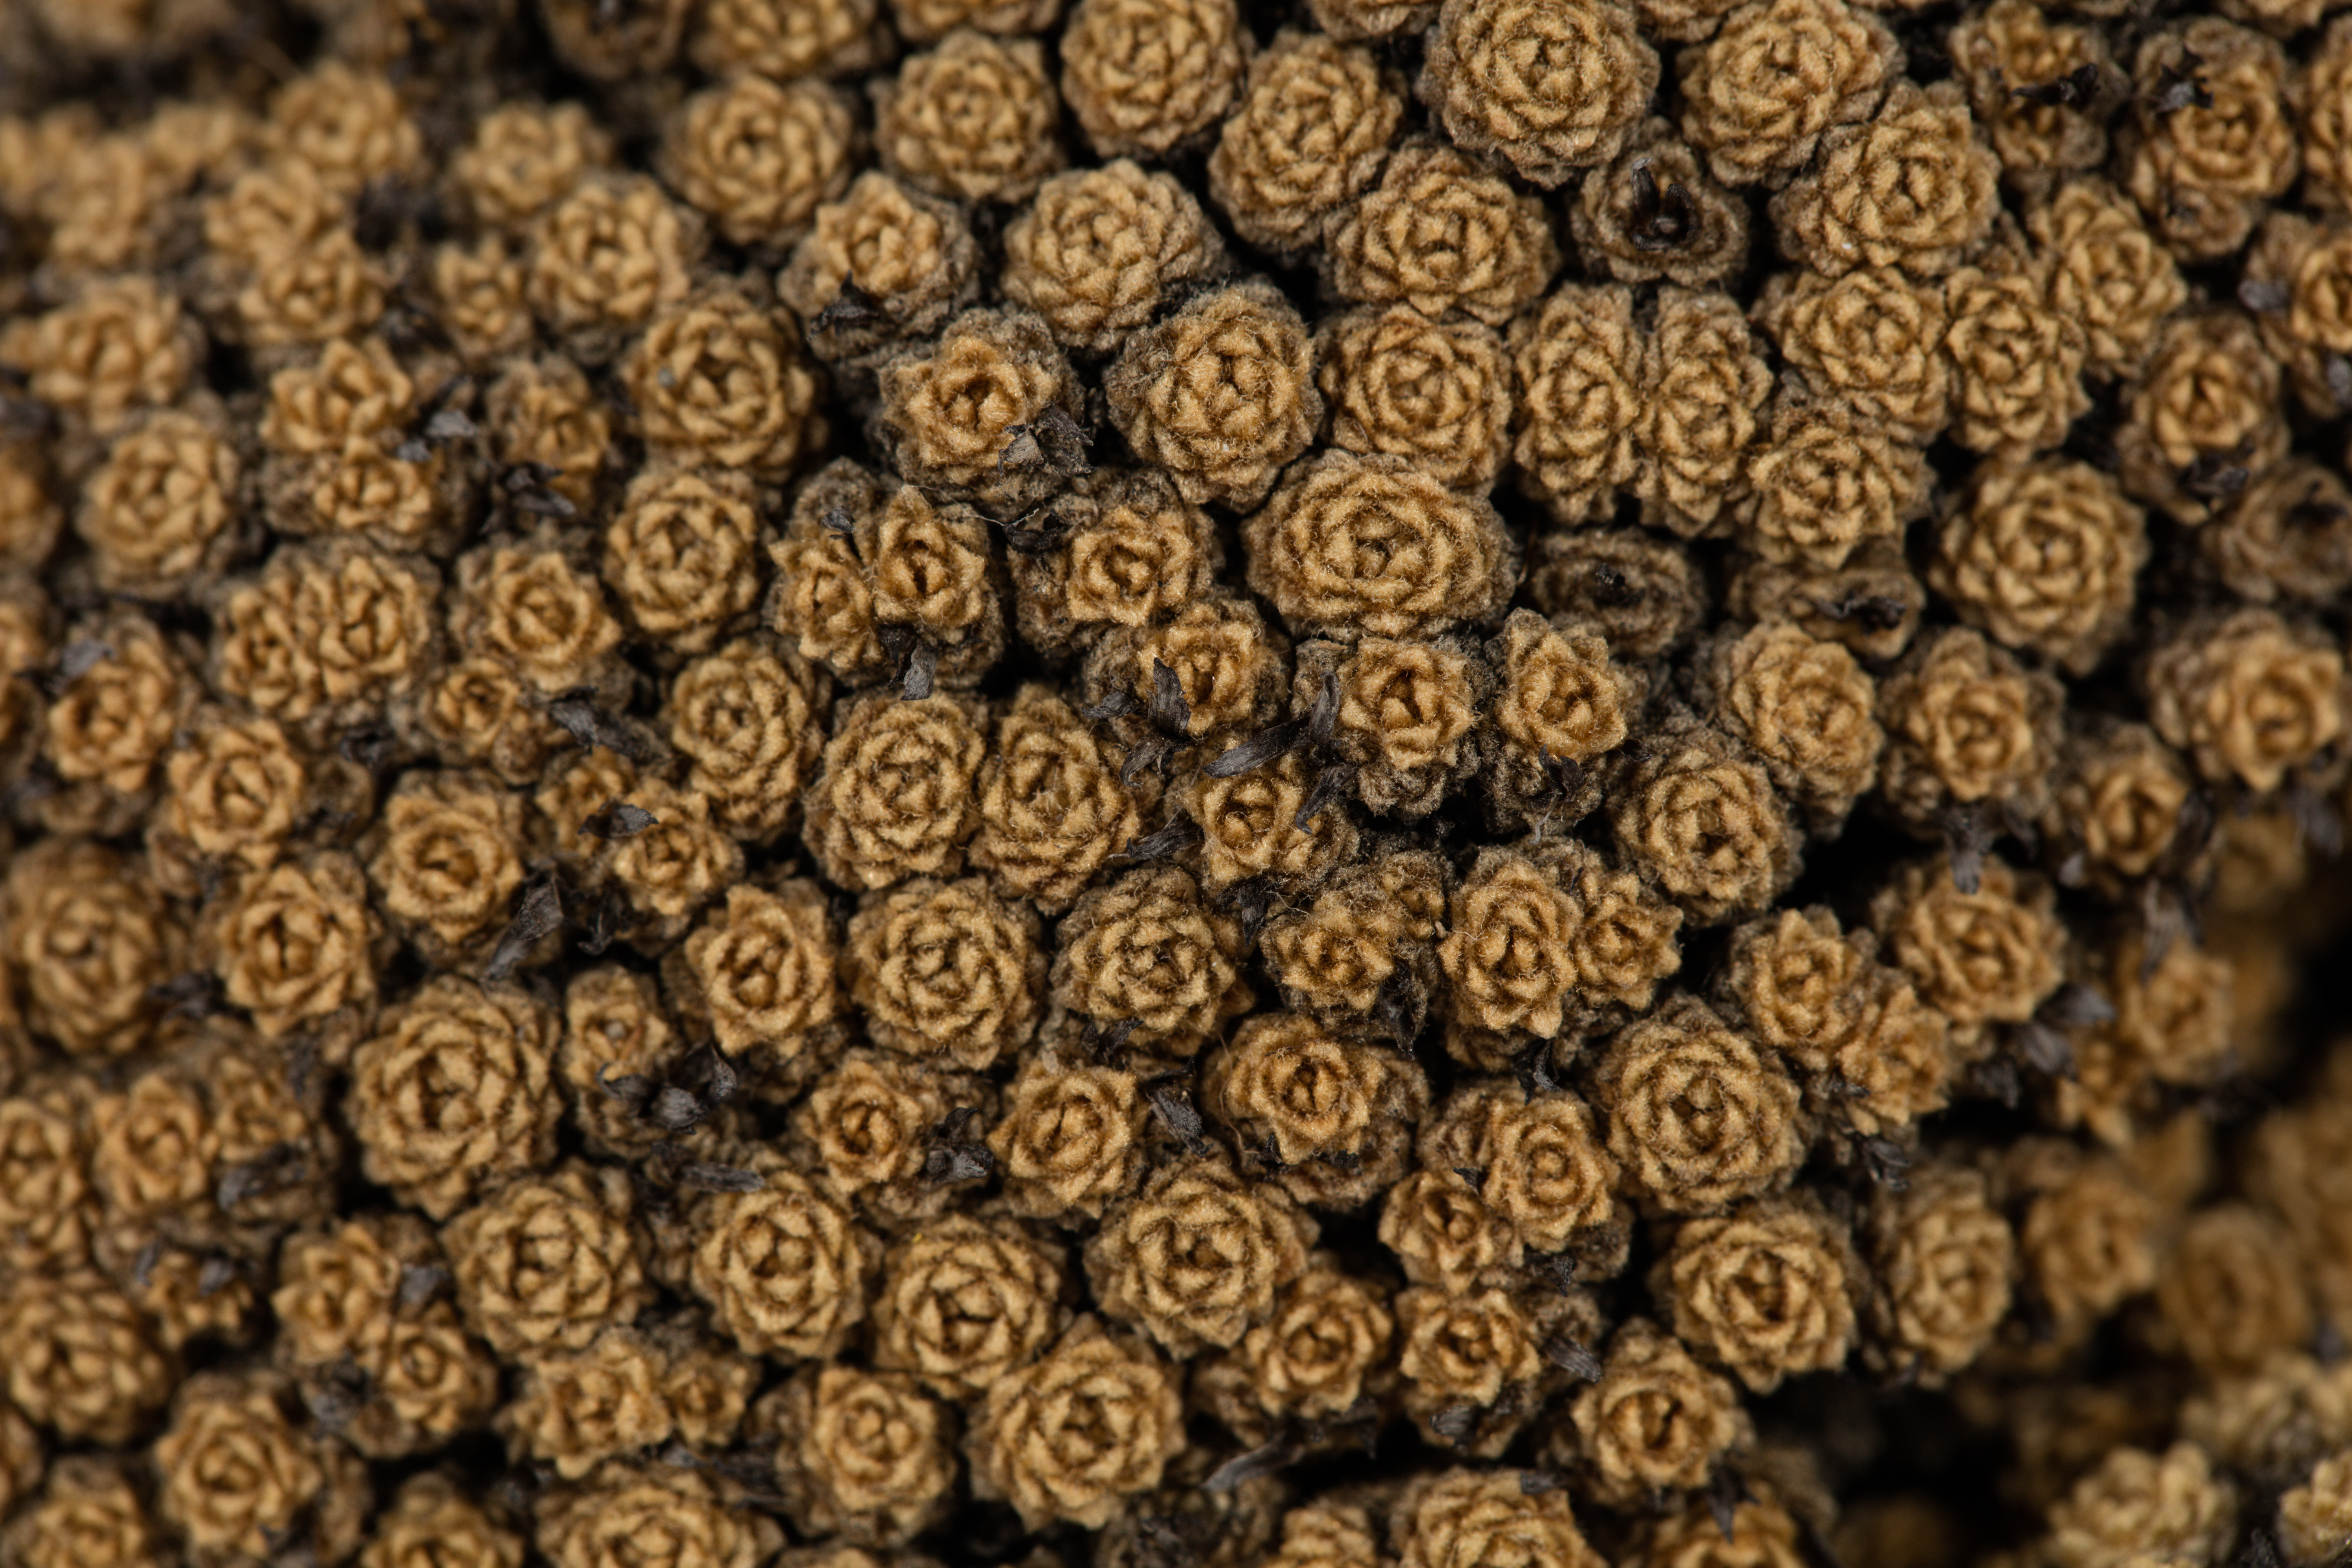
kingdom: Plantae
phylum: Tracheophyta
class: Magnoliopsida
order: Asterales
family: Asteraceae
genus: Raoulia
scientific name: Raoulia bryoides
